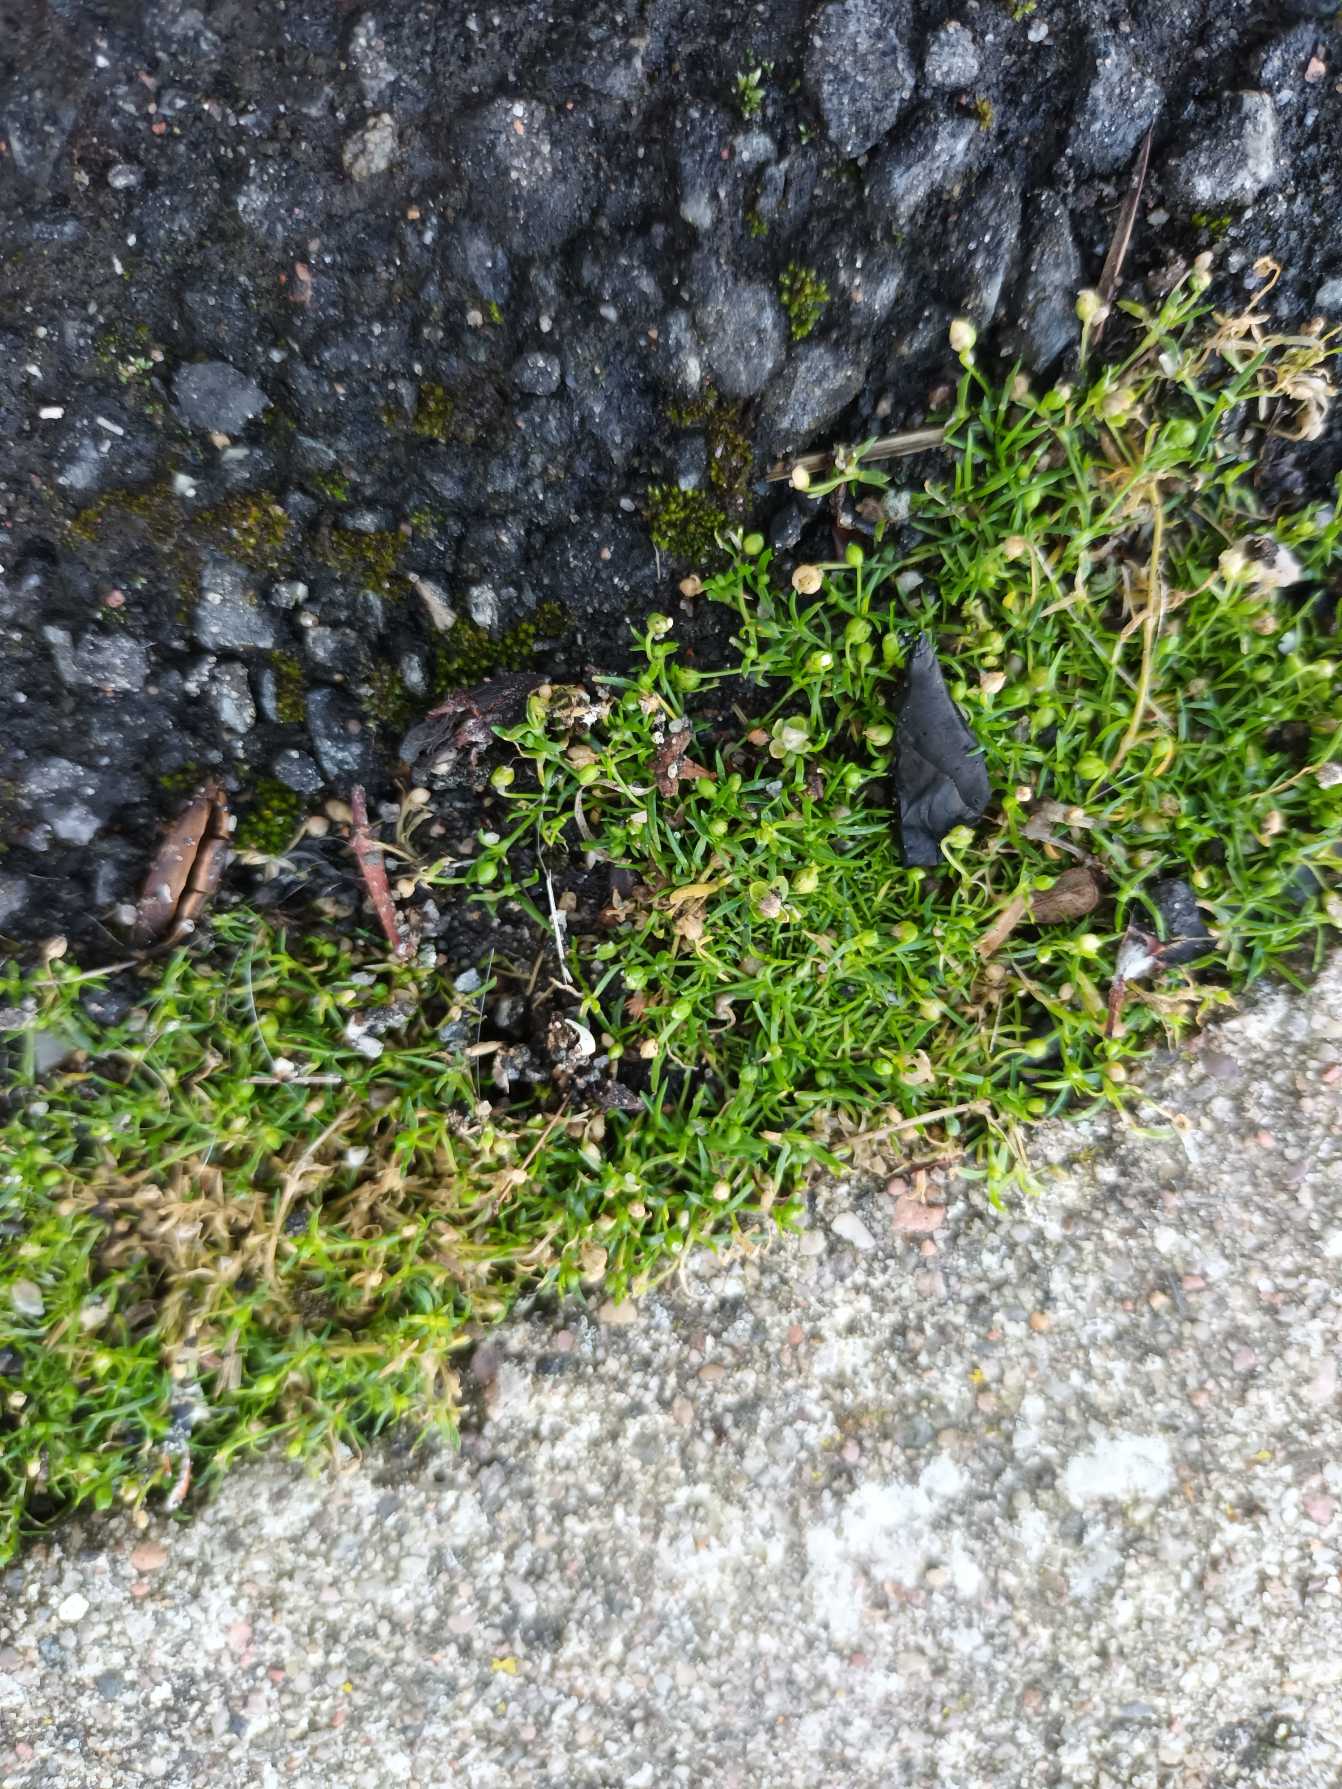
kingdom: Plantae
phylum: Tracheophyta
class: Magnoliopsida
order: Caryophyllales
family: Caryophyllaceae
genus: Sagina
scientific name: Sagina procumbens
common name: Almindelig firling
